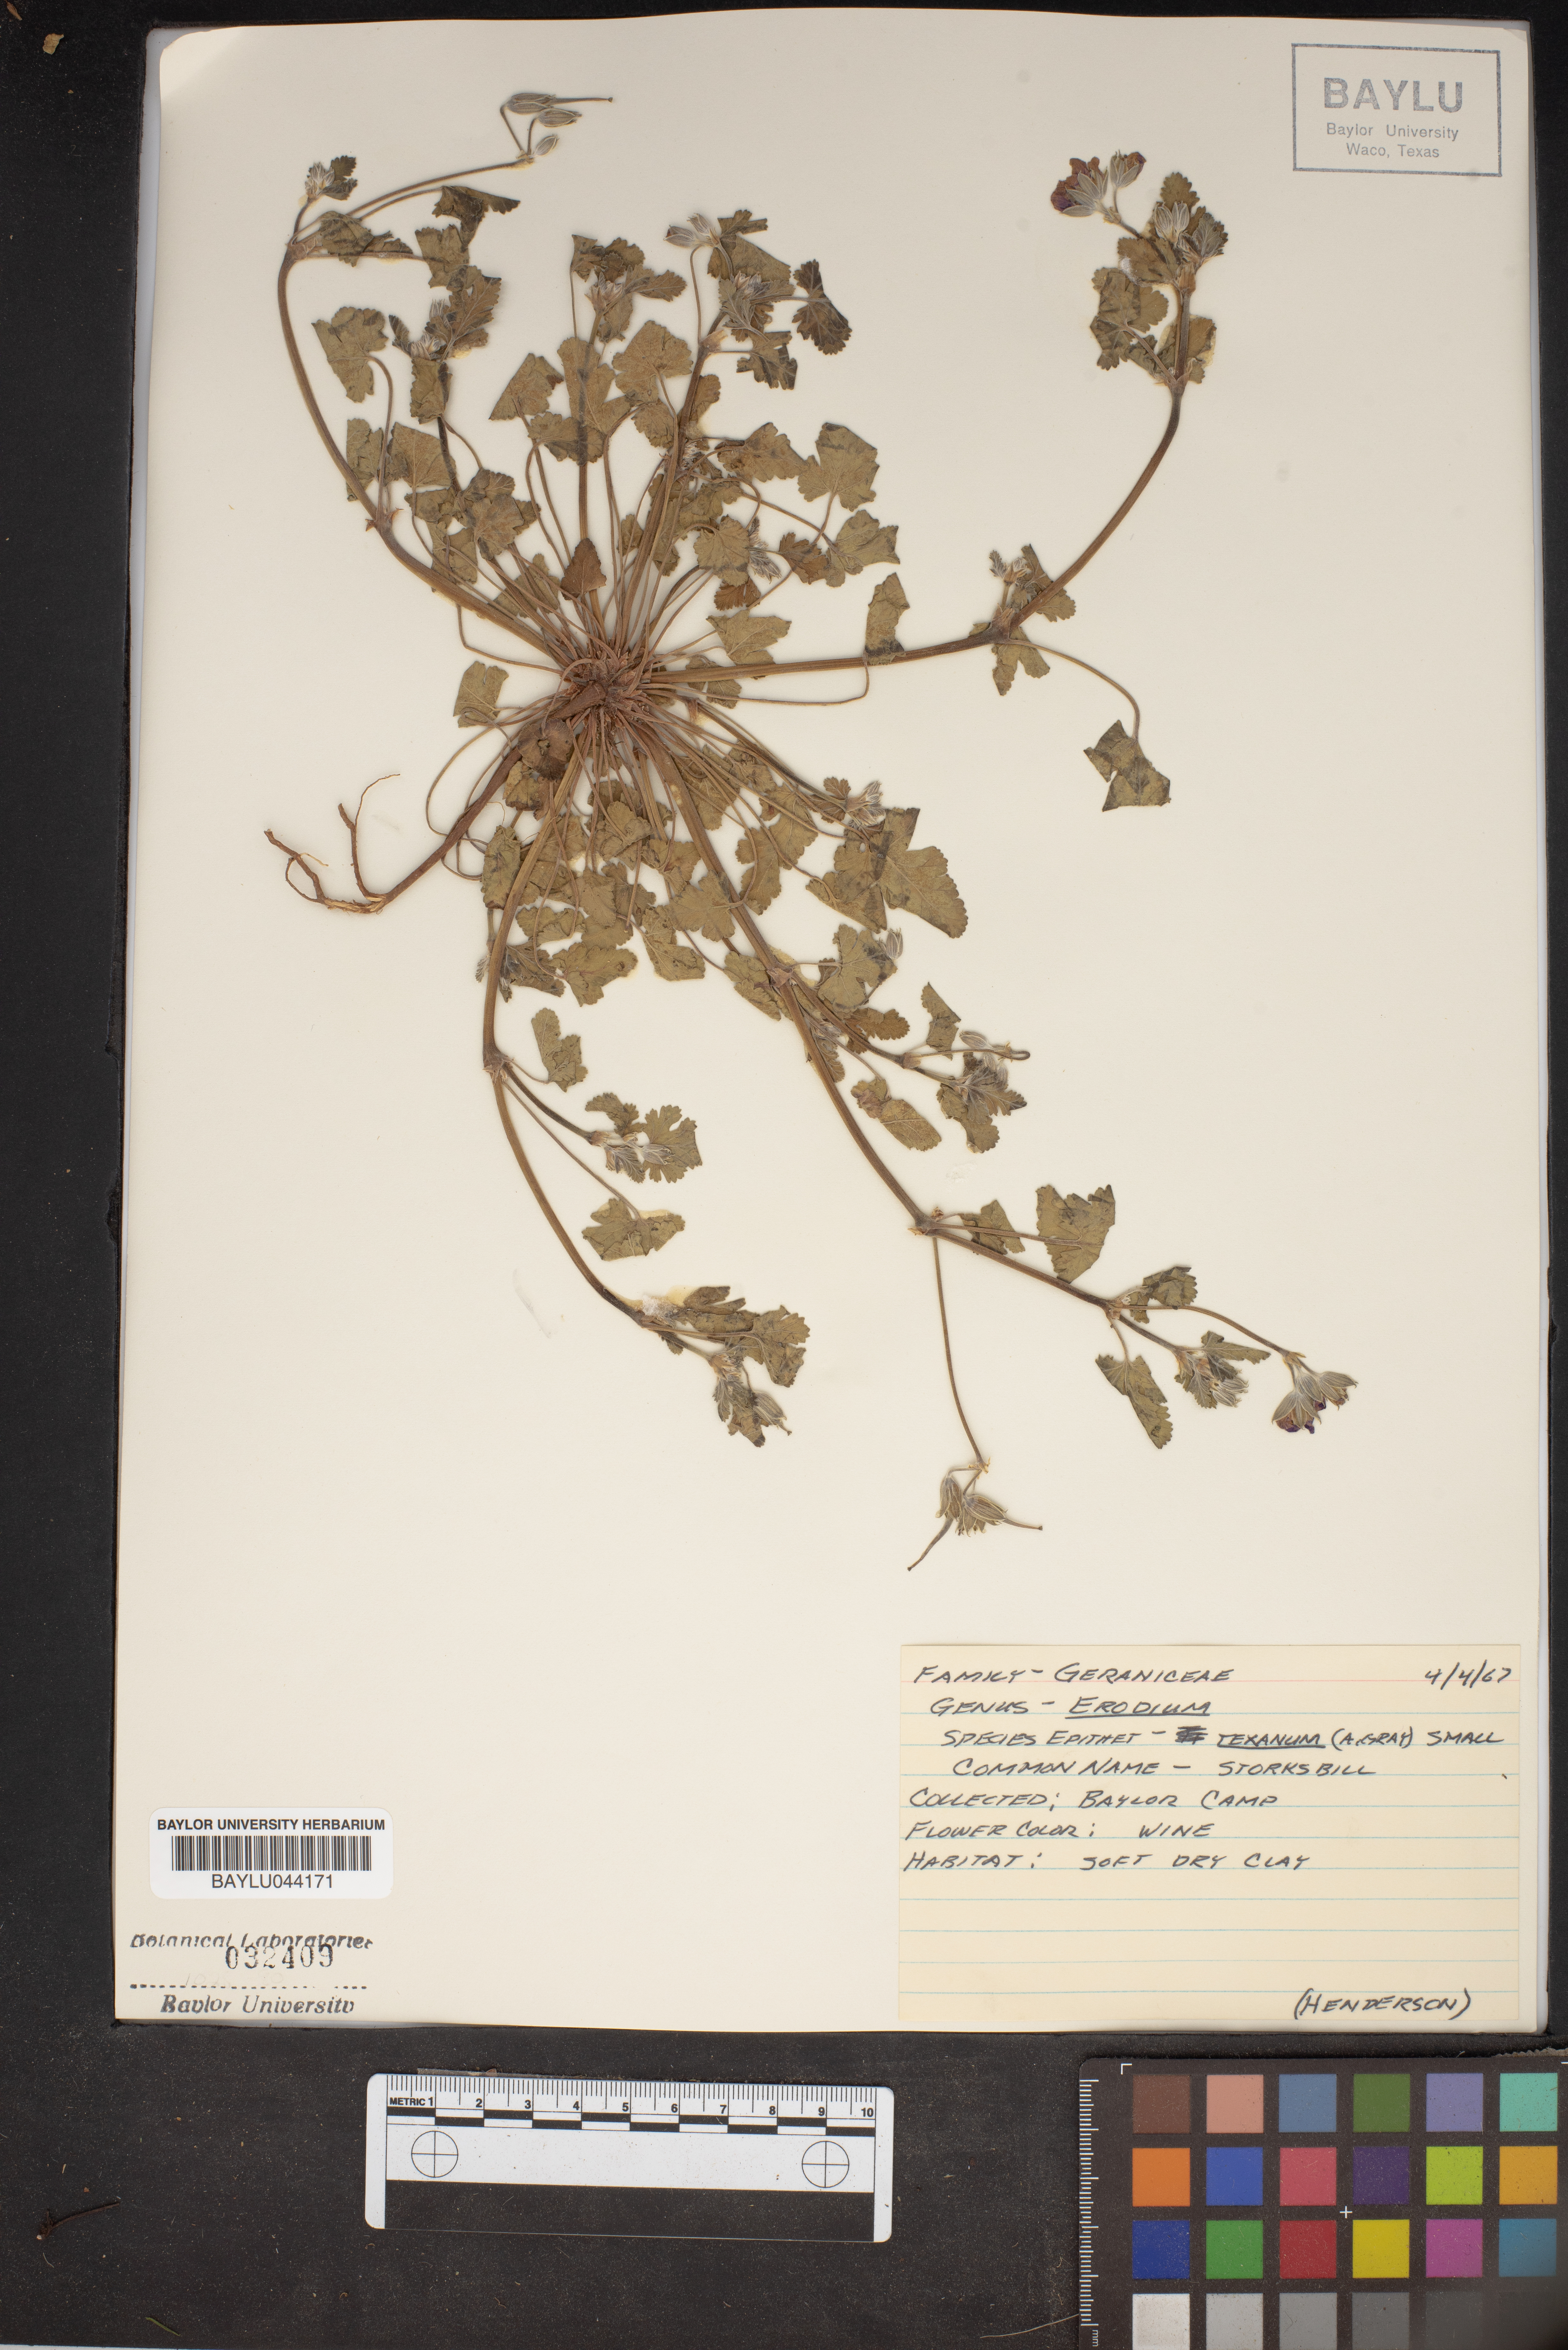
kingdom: Plantae
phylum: Tracheophyta
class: Magnoliopsida
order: Geraniales
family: Geraniaceae
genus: Erodium
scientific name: Erodium
